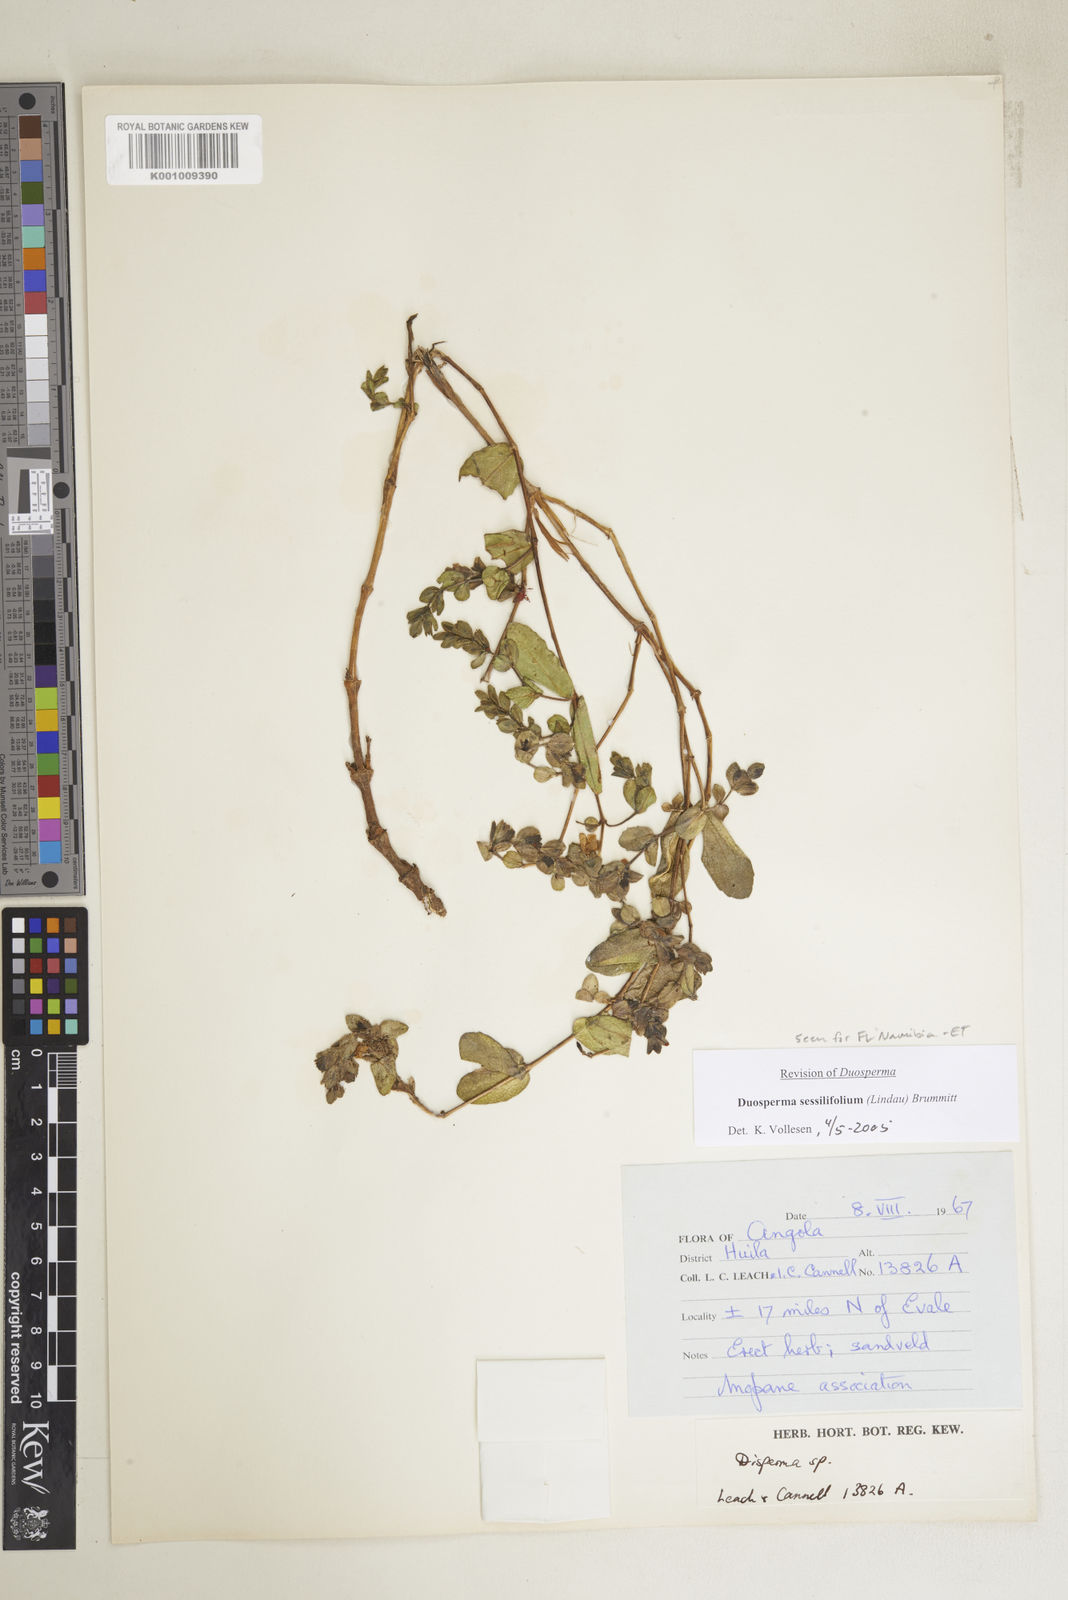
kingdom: Plantae
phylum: Tracheophyta
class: Magnoliopsida
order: Lamiales
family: Acanthaceae
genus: Duosperma
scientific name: Duosperma sessilifolium
